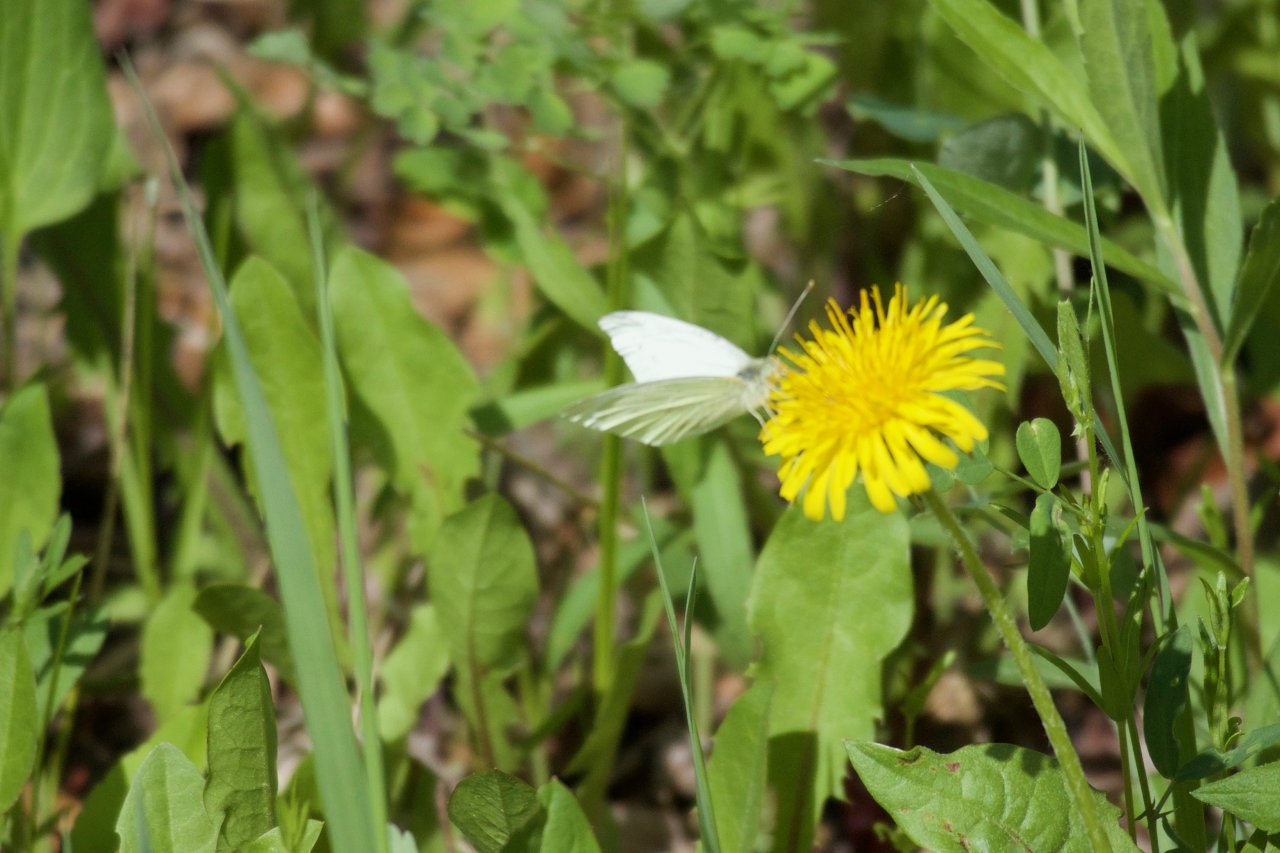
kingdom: Animalia
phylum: Arthropoda
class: Insecta
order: Lepidoptera
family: Pieridae
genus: Pieris
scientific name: Pieris rapae
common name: Cabbage White
